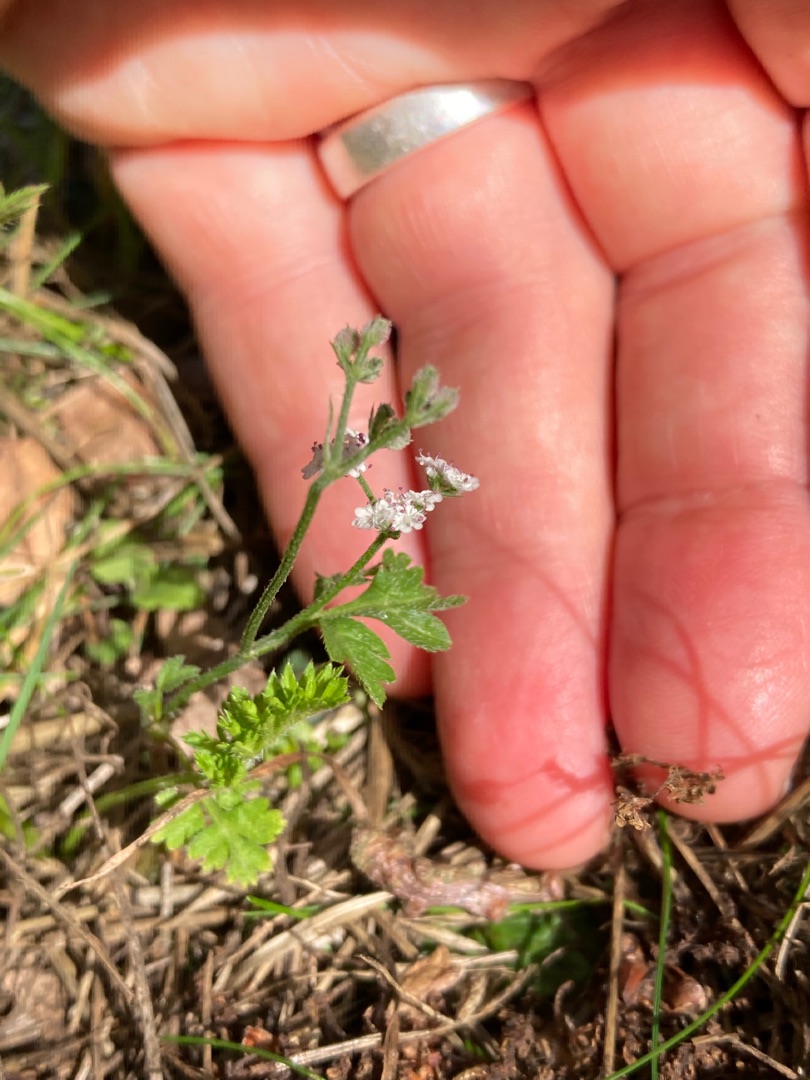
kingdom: Plantae
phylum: Tracheophyta
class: Magnoliopsida
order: Apiales
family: Apiaceae
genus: Torilis
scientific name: Torilis japonica
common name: Hvas randfrø
